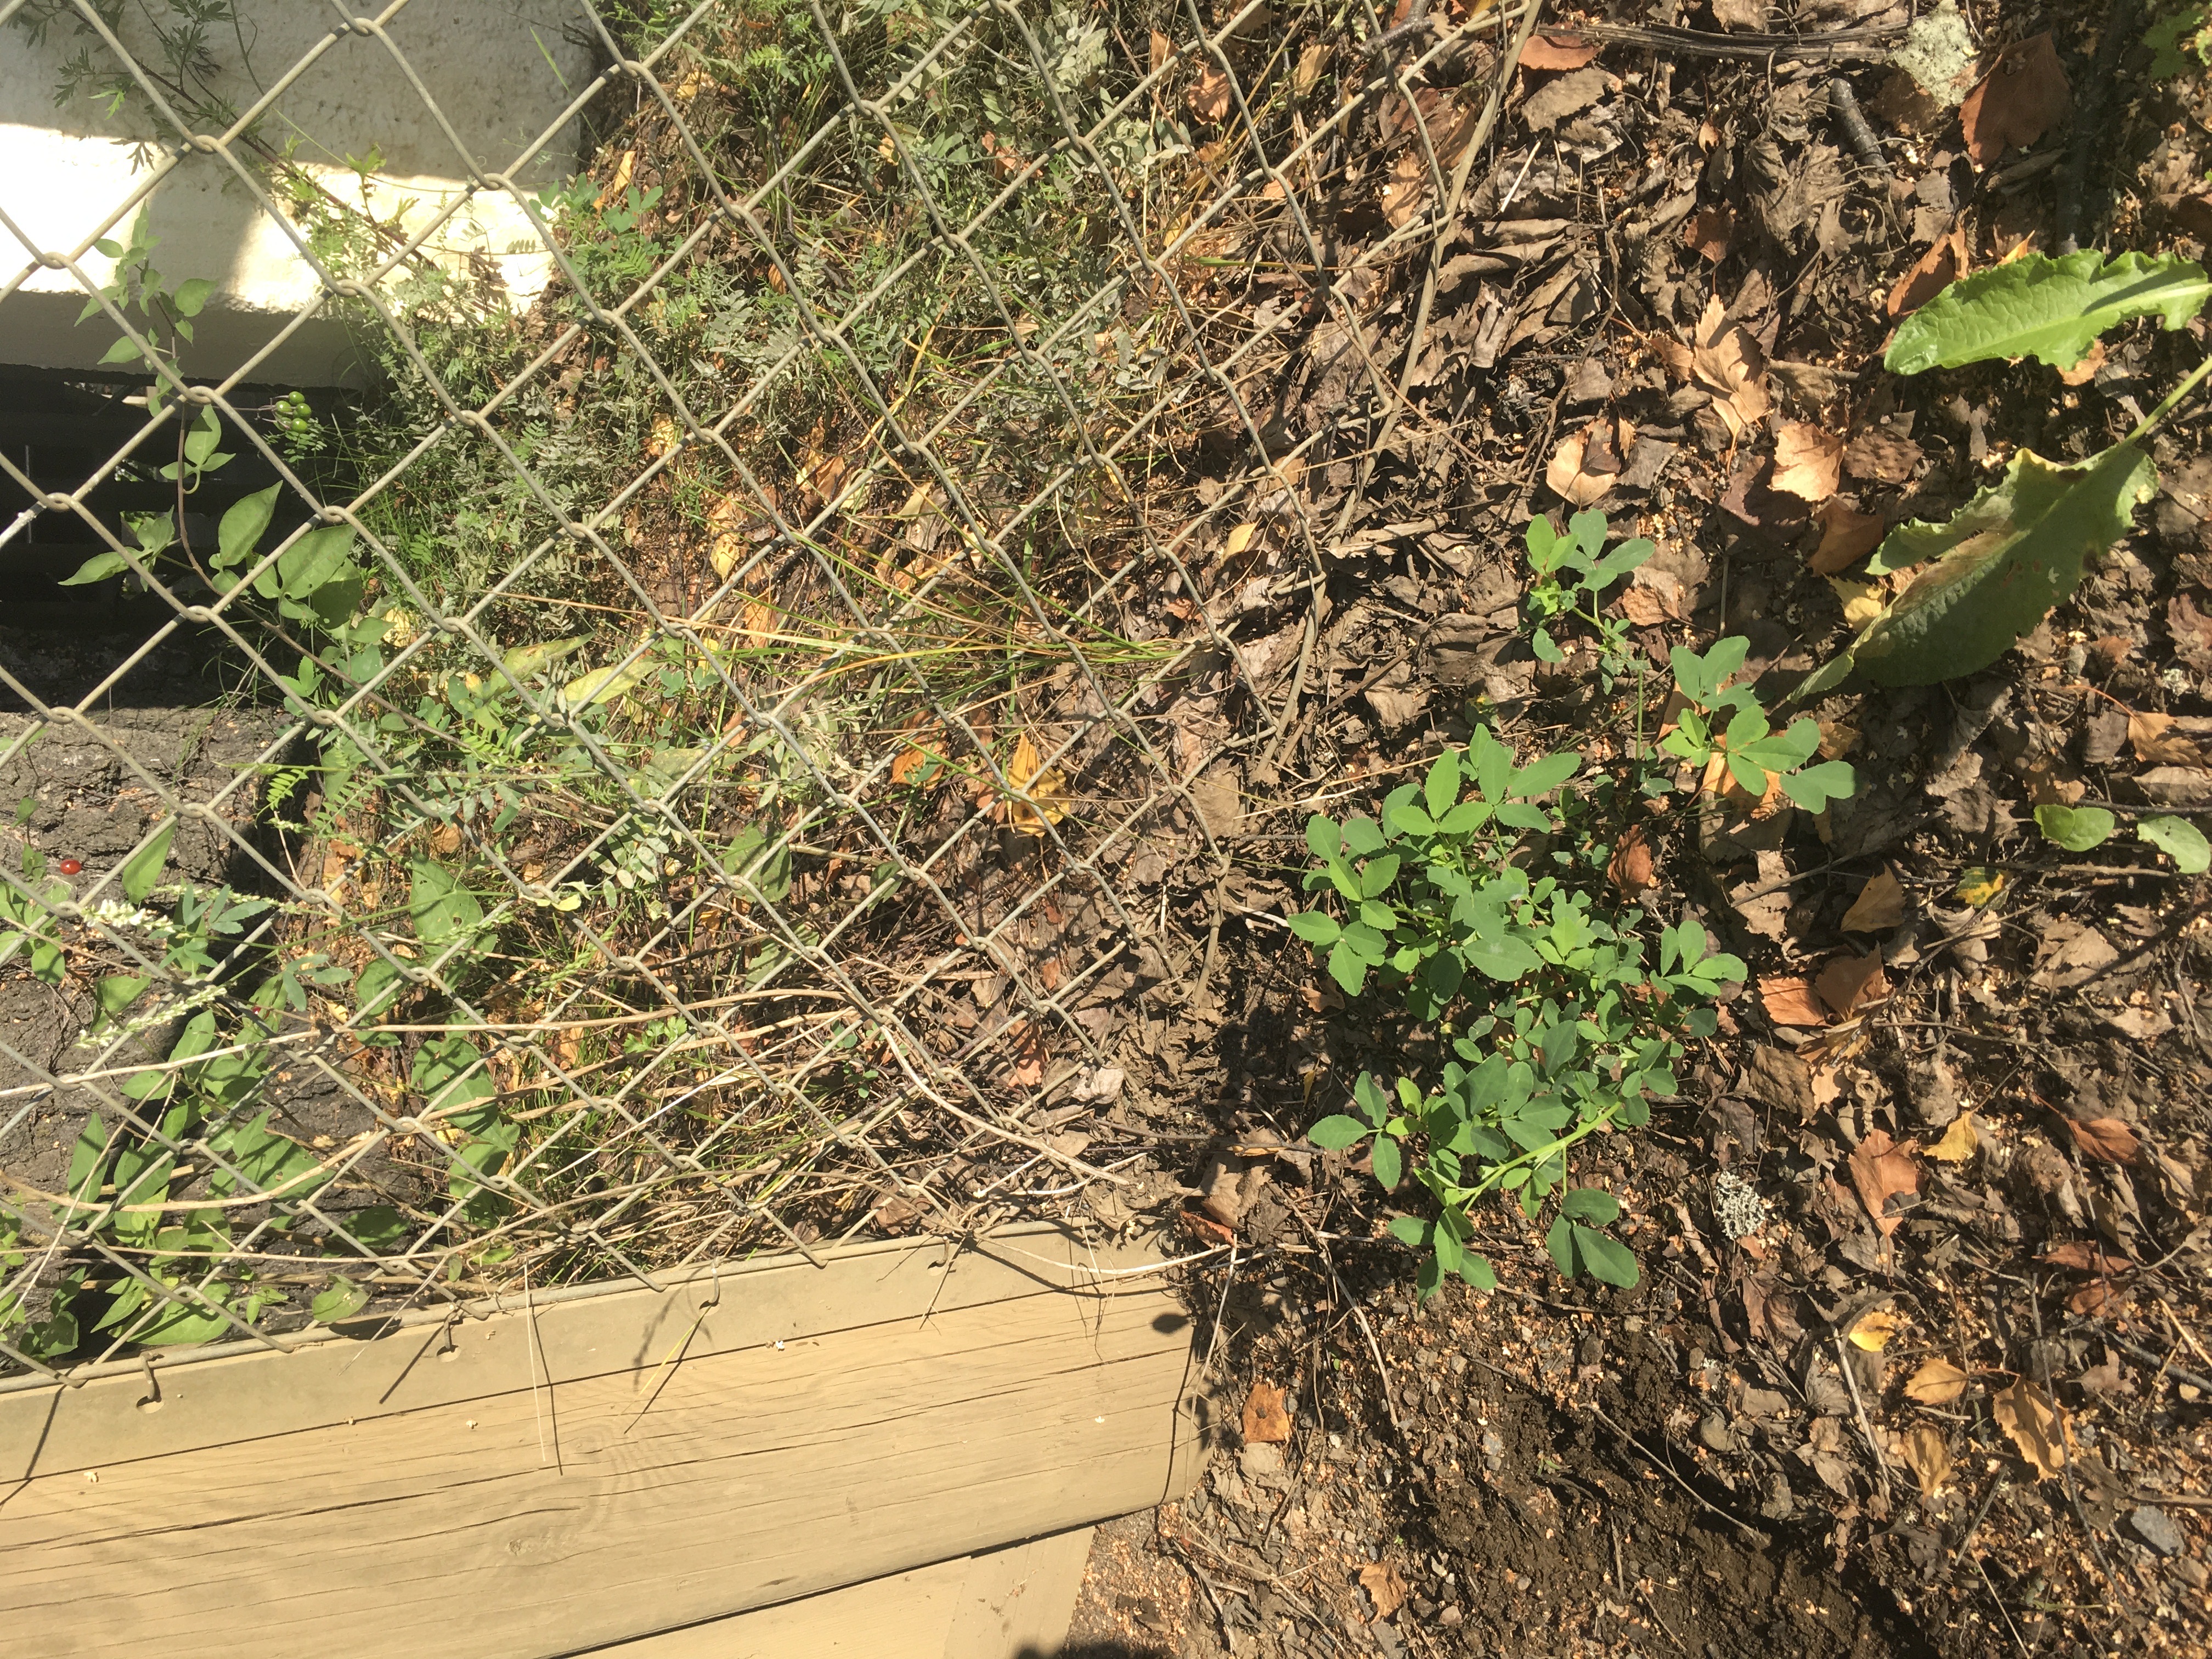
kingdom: Plantae
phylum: Tracheophyta
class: Magnoliopsida
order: Fabales
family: Fabaceae
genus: Melilotus
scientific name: Melilotus albus
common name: hvitsteinkløver
